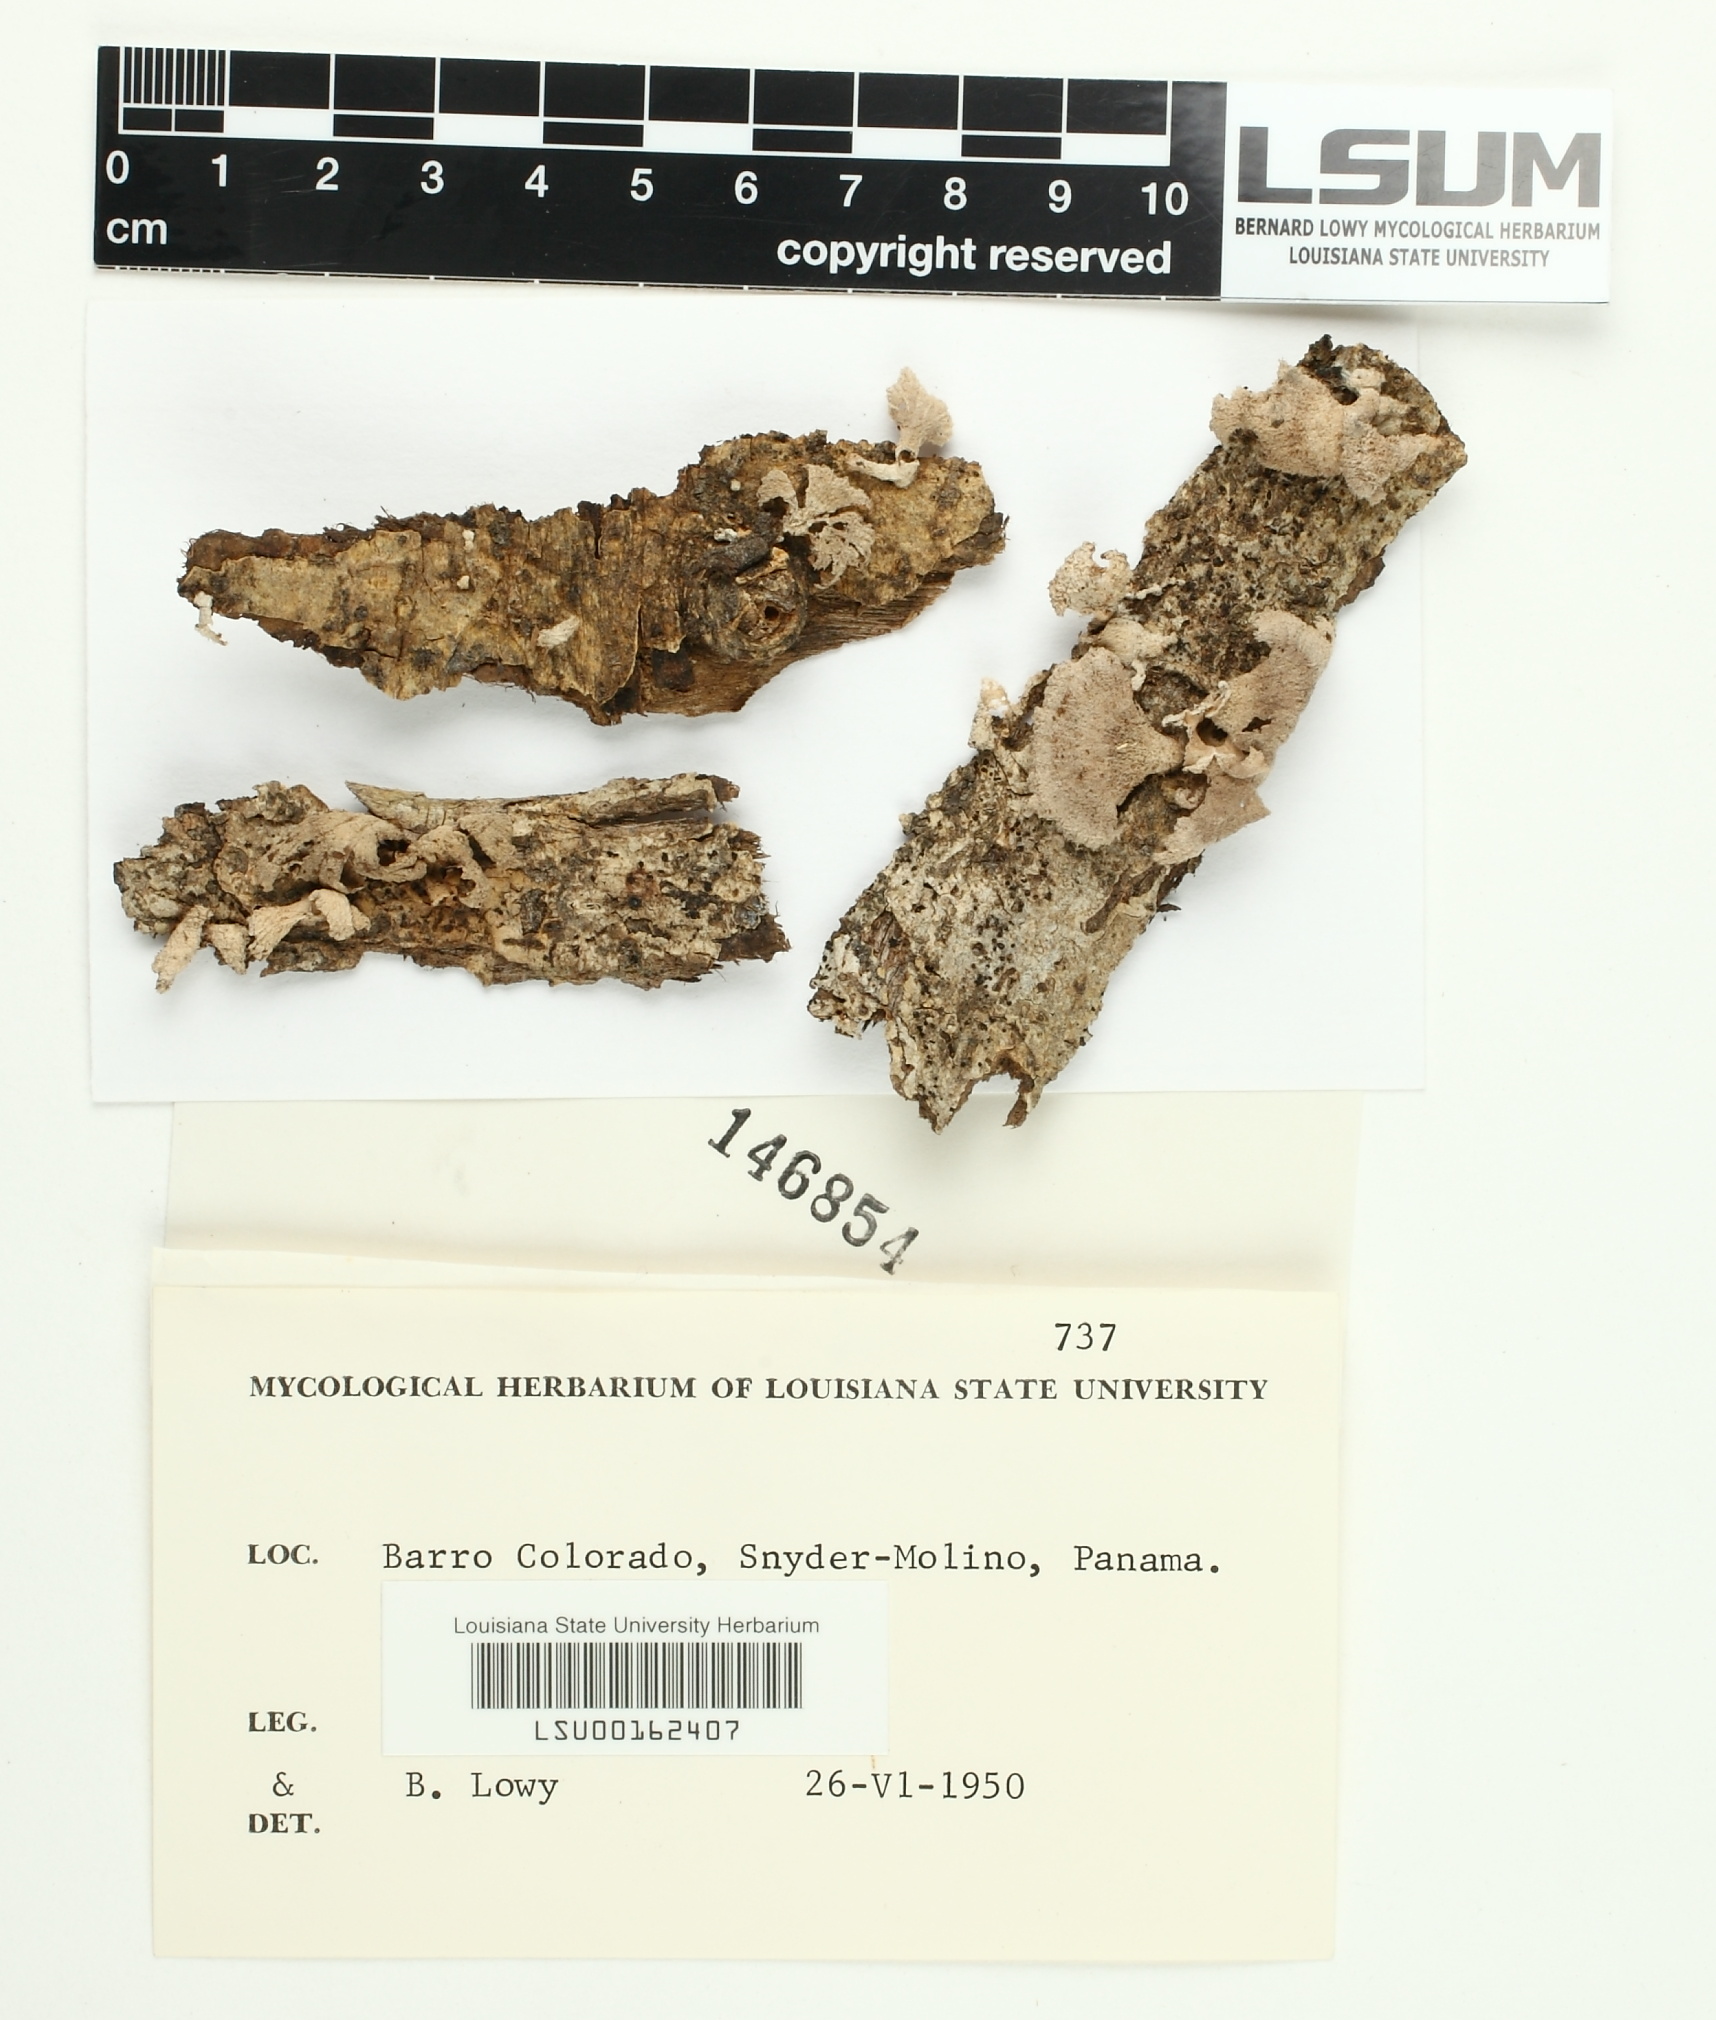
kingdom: Fungi
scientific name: Fungi
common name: Fungi
